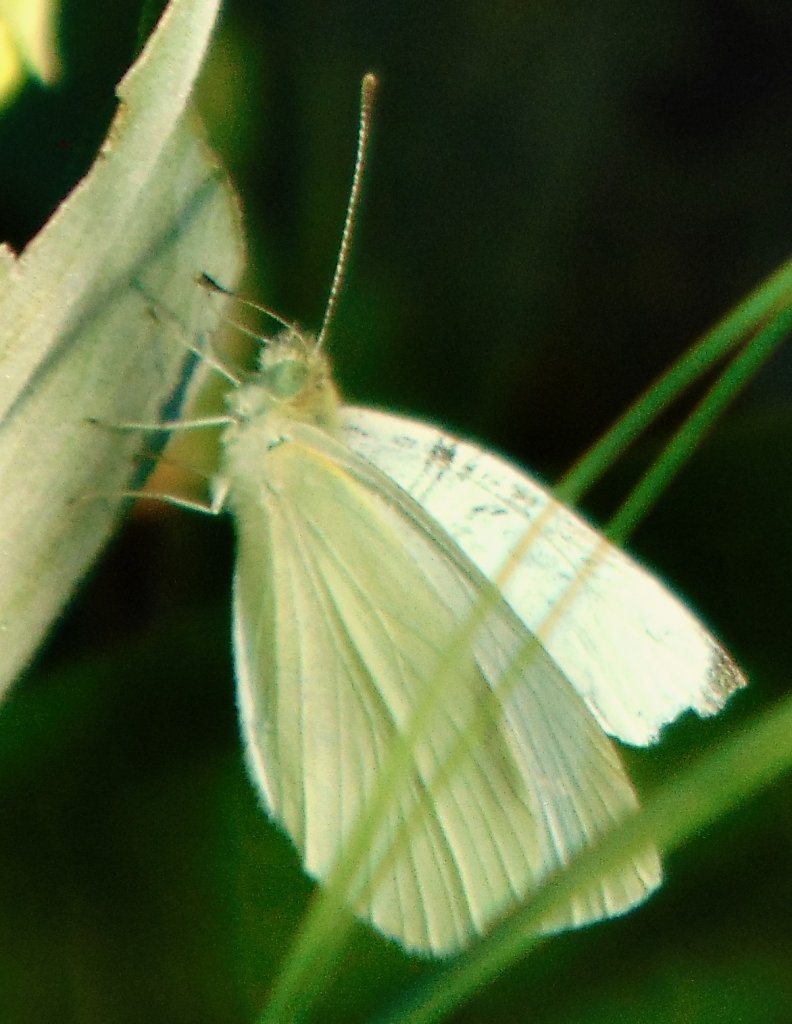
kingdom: Animalia
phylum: Arthropoda
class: Insecta
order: Lepidoptera
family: Pieridae
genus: Pieris
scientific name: Pieris rapae
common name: Cabbage White
